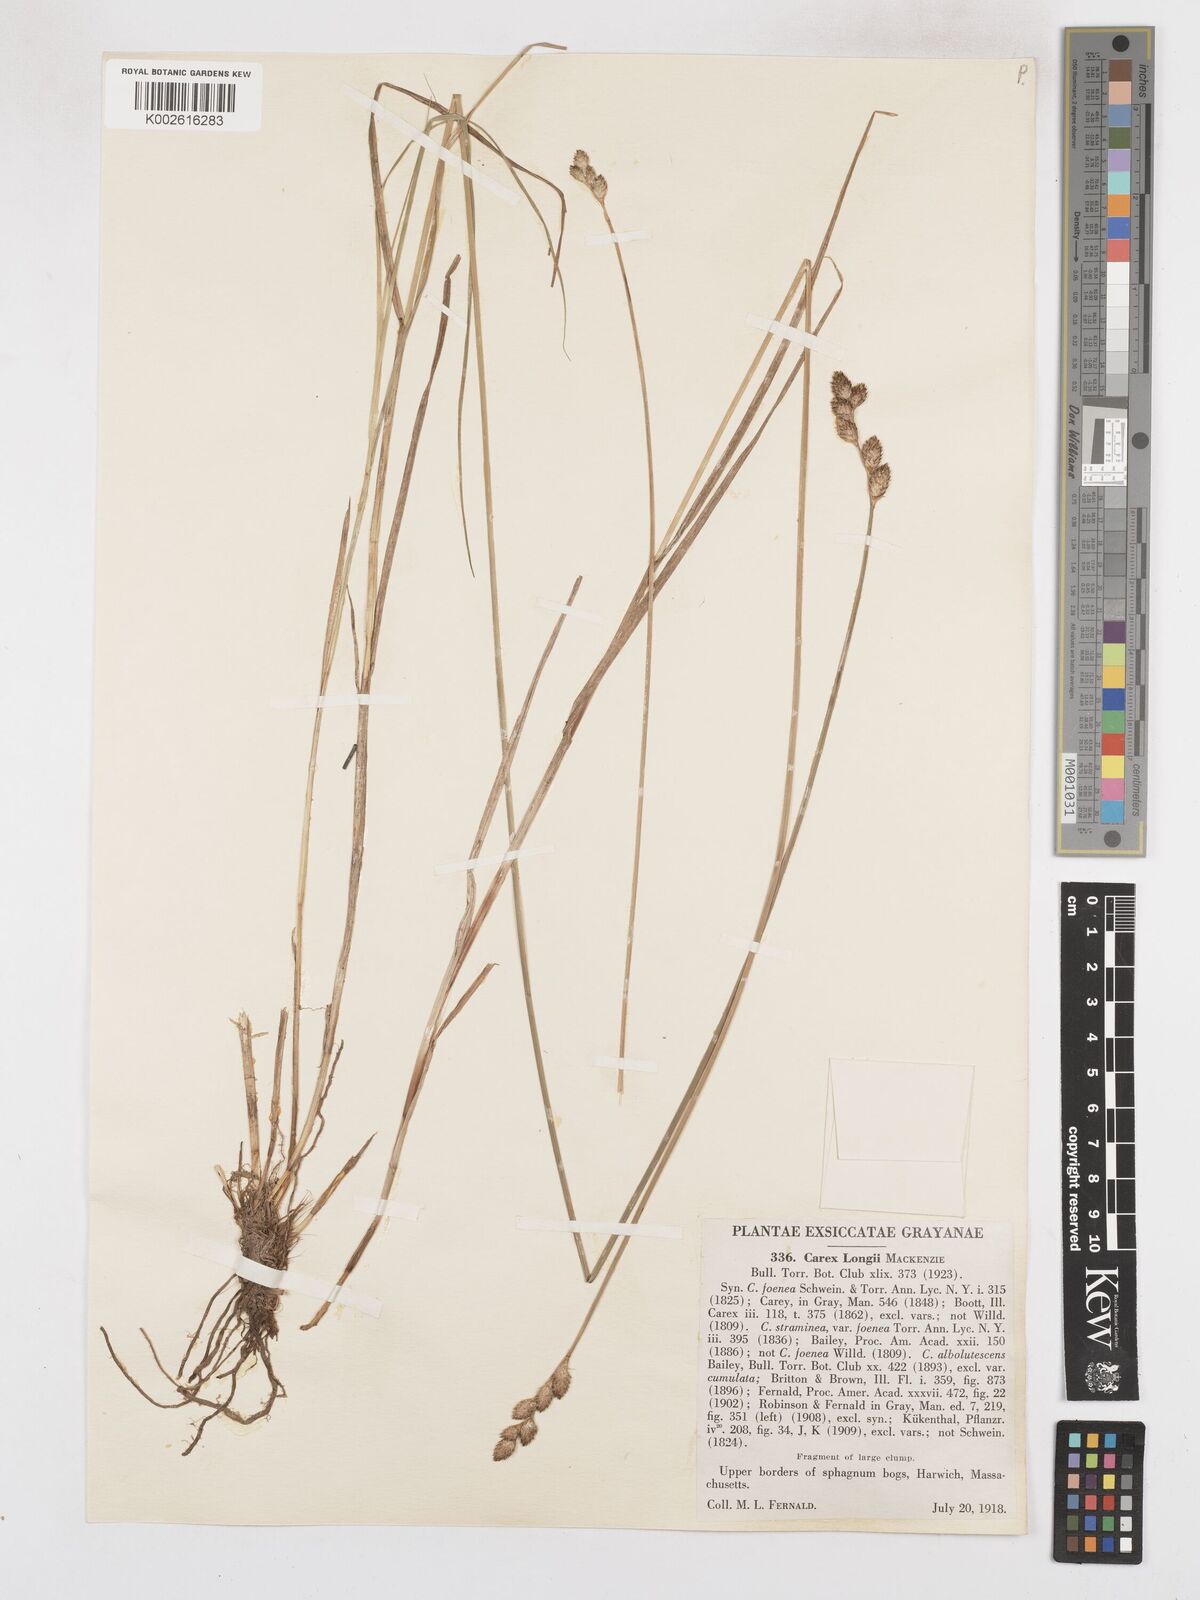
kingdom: Plantae
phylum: Tracheophyta
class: Liliopsida
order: Poales
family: Cyperaceae
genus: Carex
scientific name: Carex longii
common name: Long's sedge
